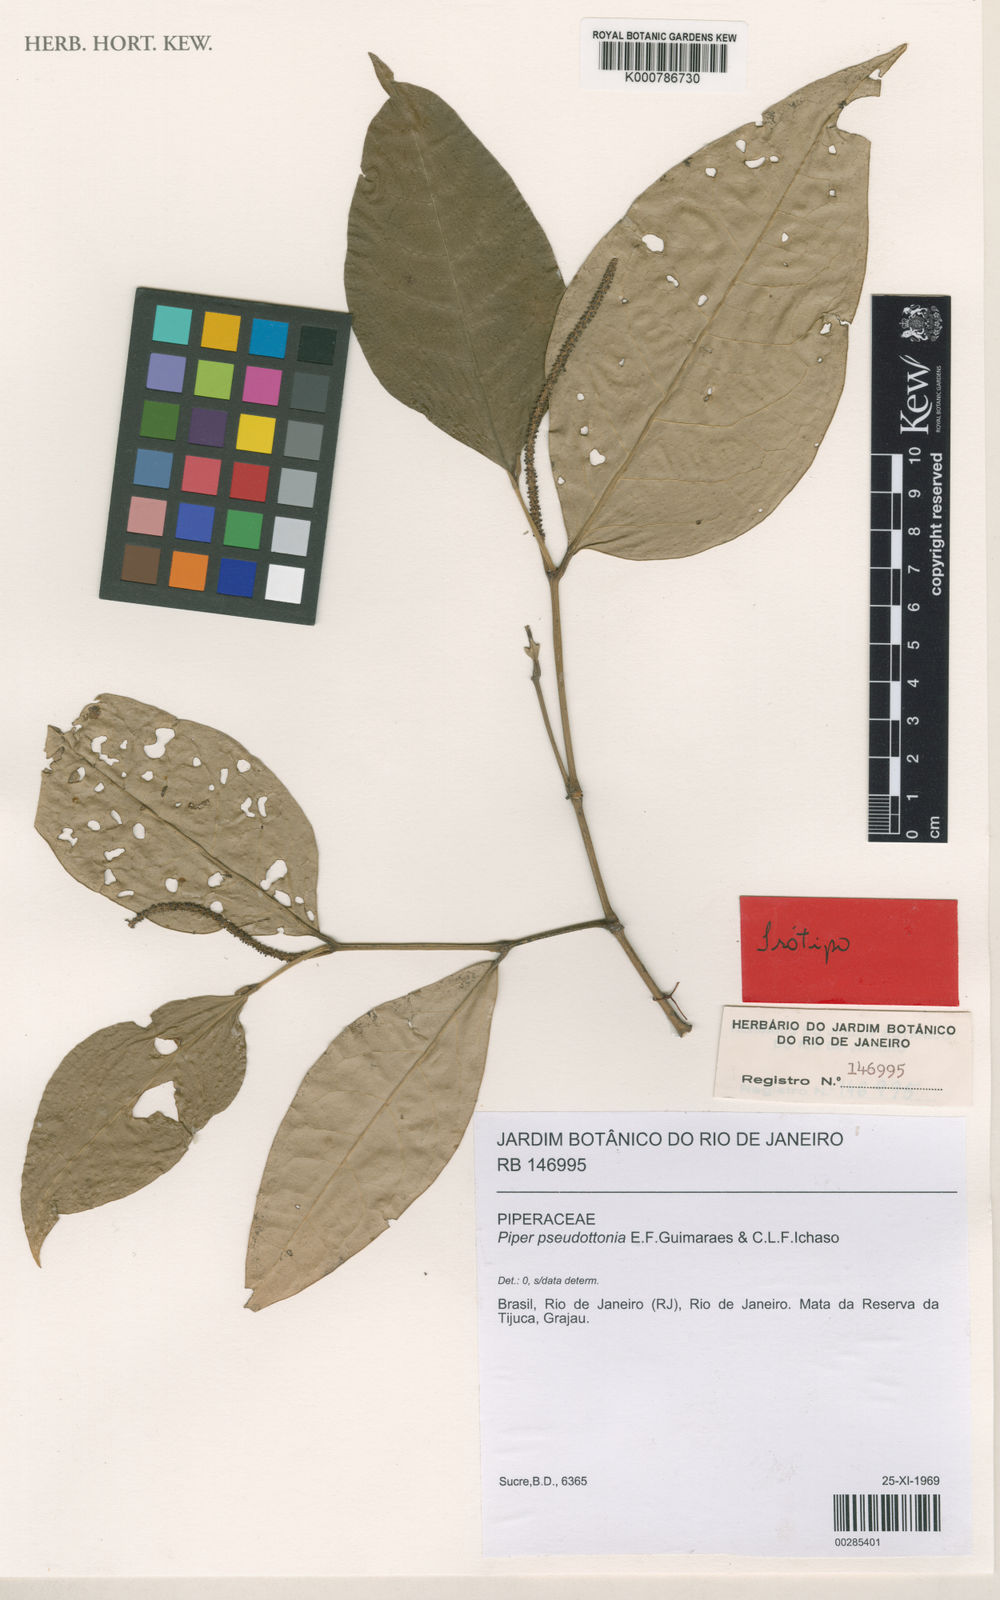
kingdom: Plantae
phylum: Tracheophyta
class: Magnoliopsida
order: Piperales
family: Piperaceae
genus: Piper
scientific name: Piper klotzschianum
